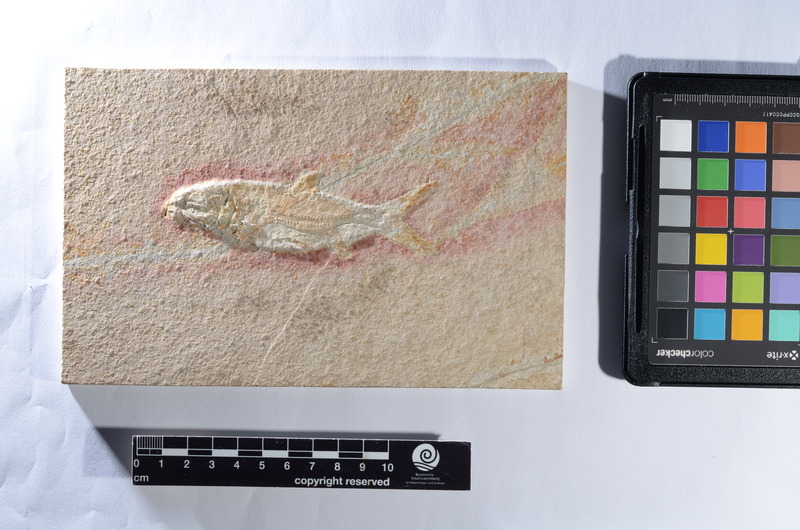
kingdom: Animalia
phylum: Chordata
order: Amiiformes
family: Caturidae
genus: Caturus
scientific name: Caturus
